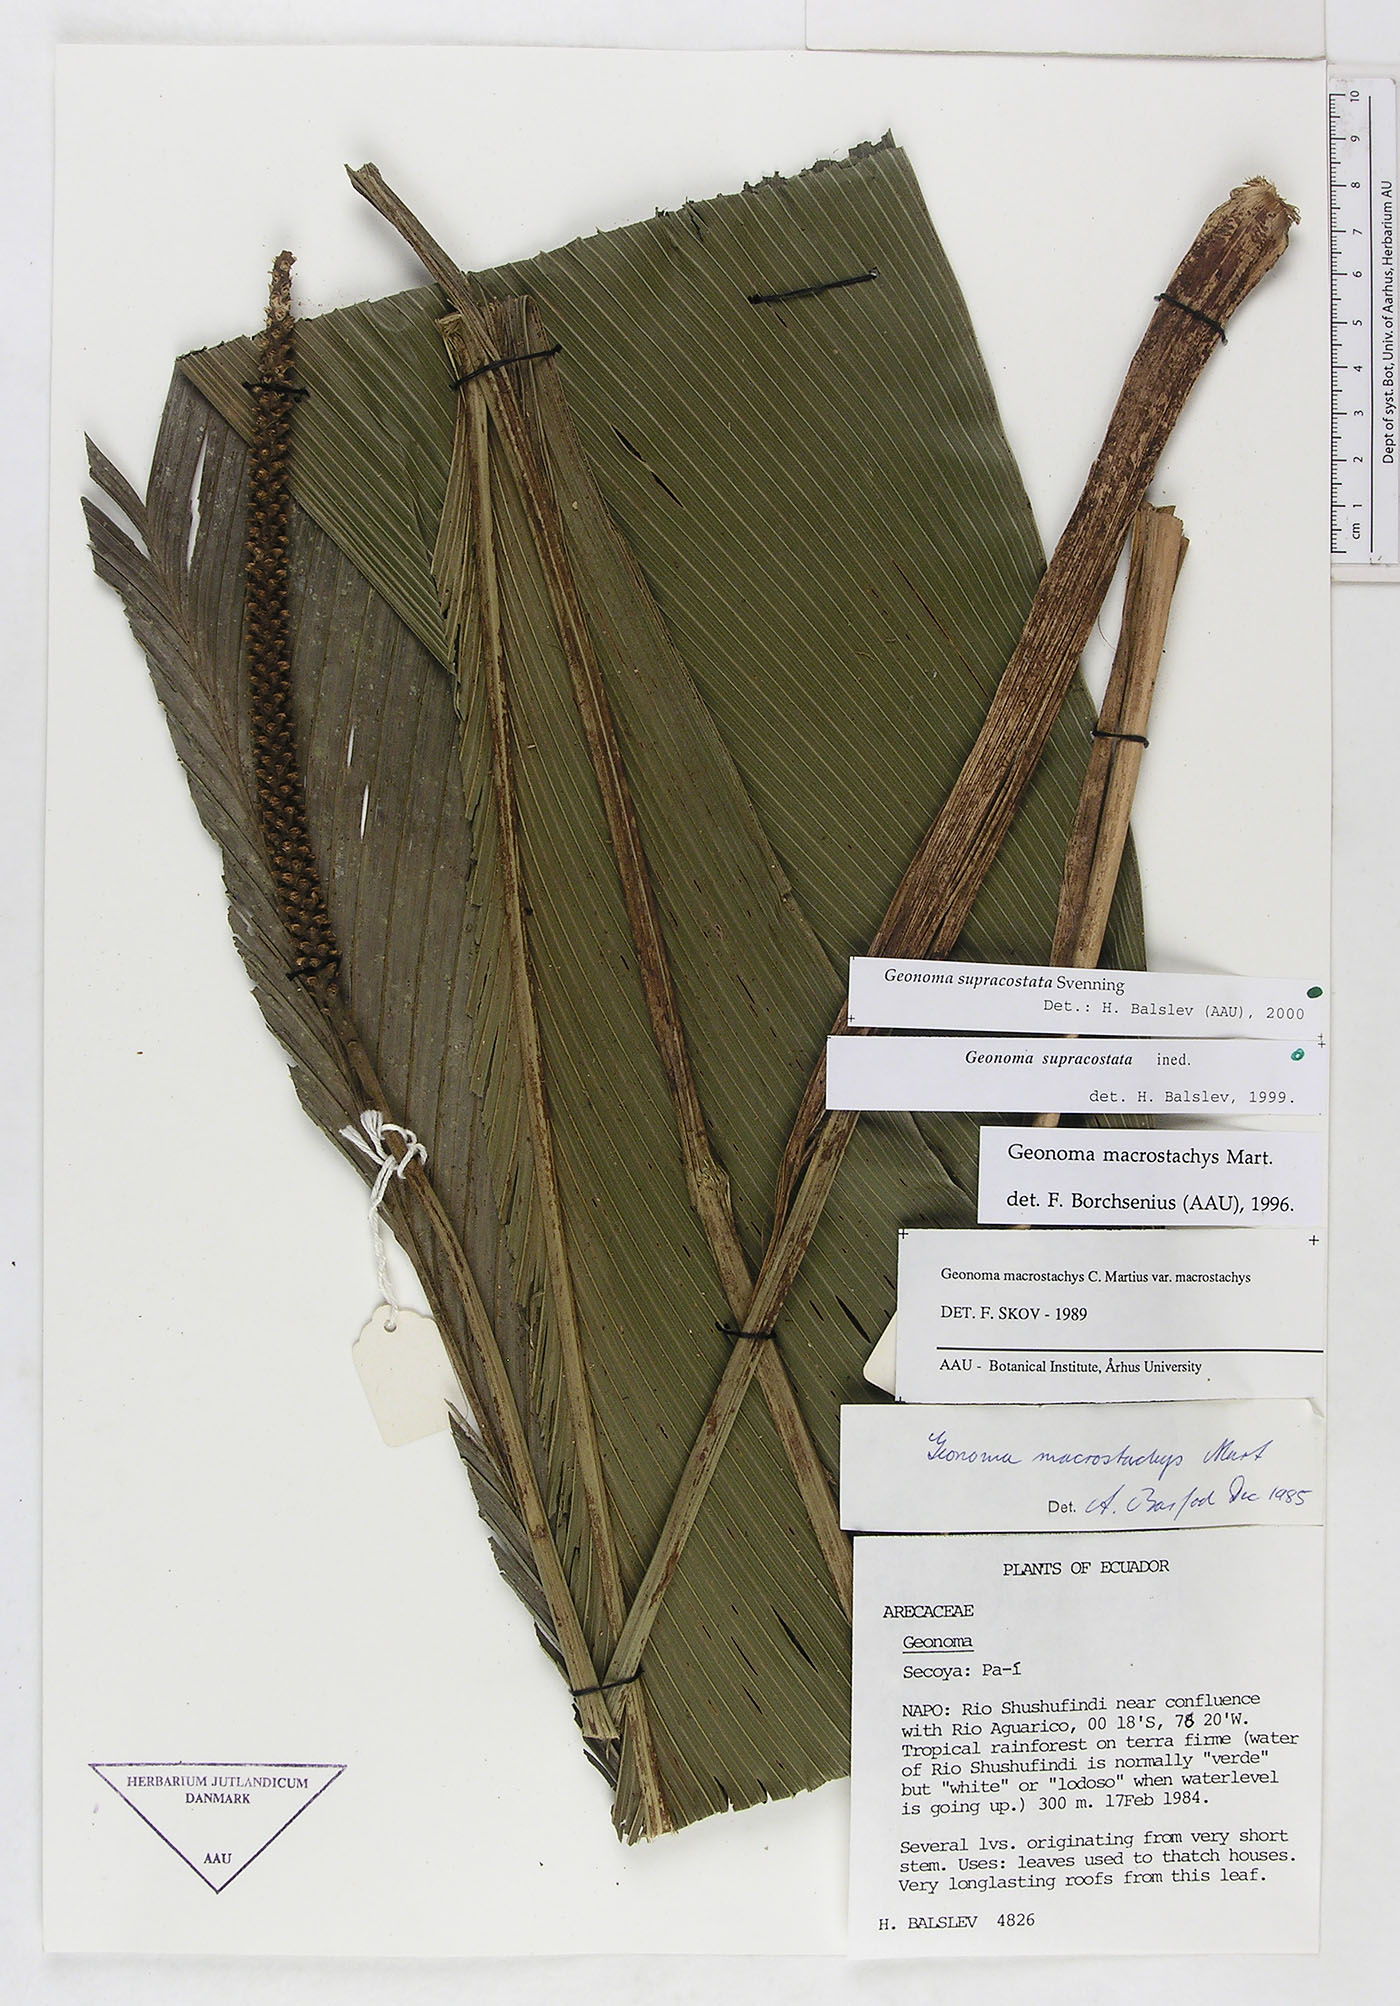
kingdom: Plantae
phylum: Tracheophyta
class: Liliopsida
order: Arecales
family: Arecaceae
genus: Geonoma
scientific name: Geonoma macrostachys
